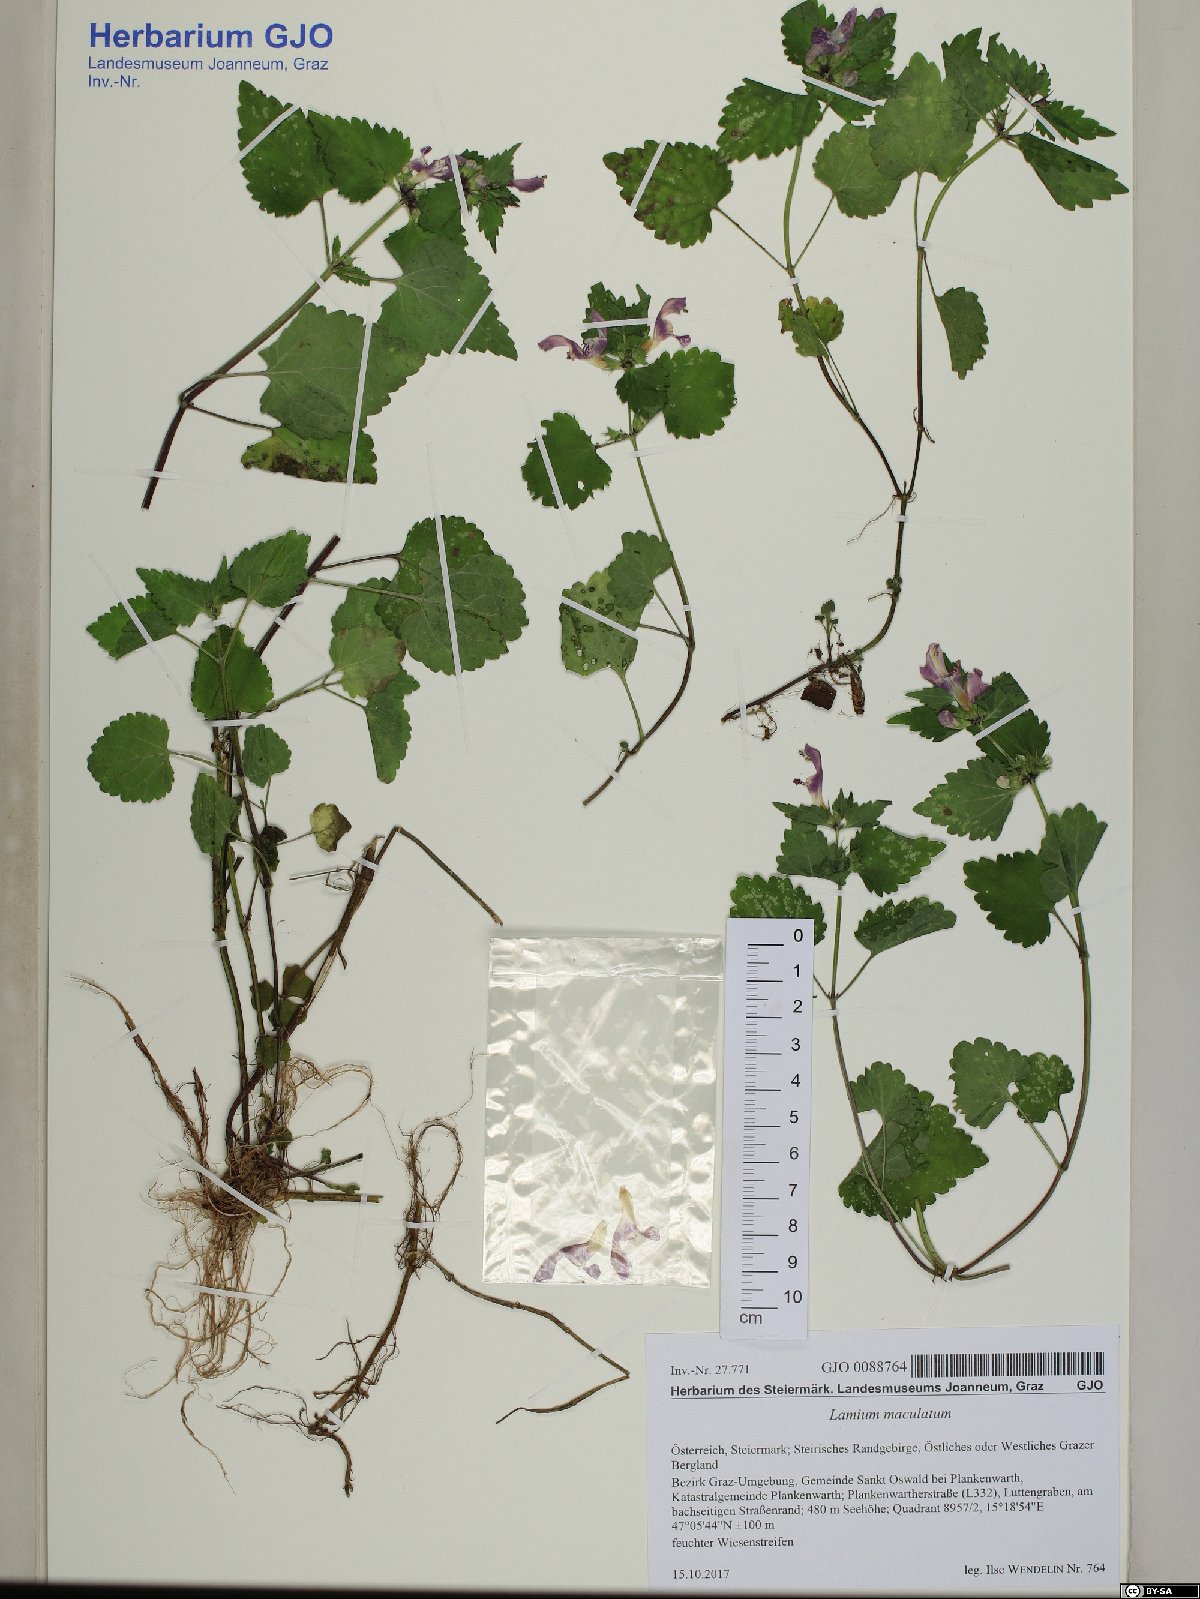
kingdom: Plantae
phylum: Tracheophyta
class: Magnoliopsida
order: Lamiales
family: Lamiaceae
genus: Lamium
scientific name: Lamium maculatum
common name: Spotted dead-nettle
